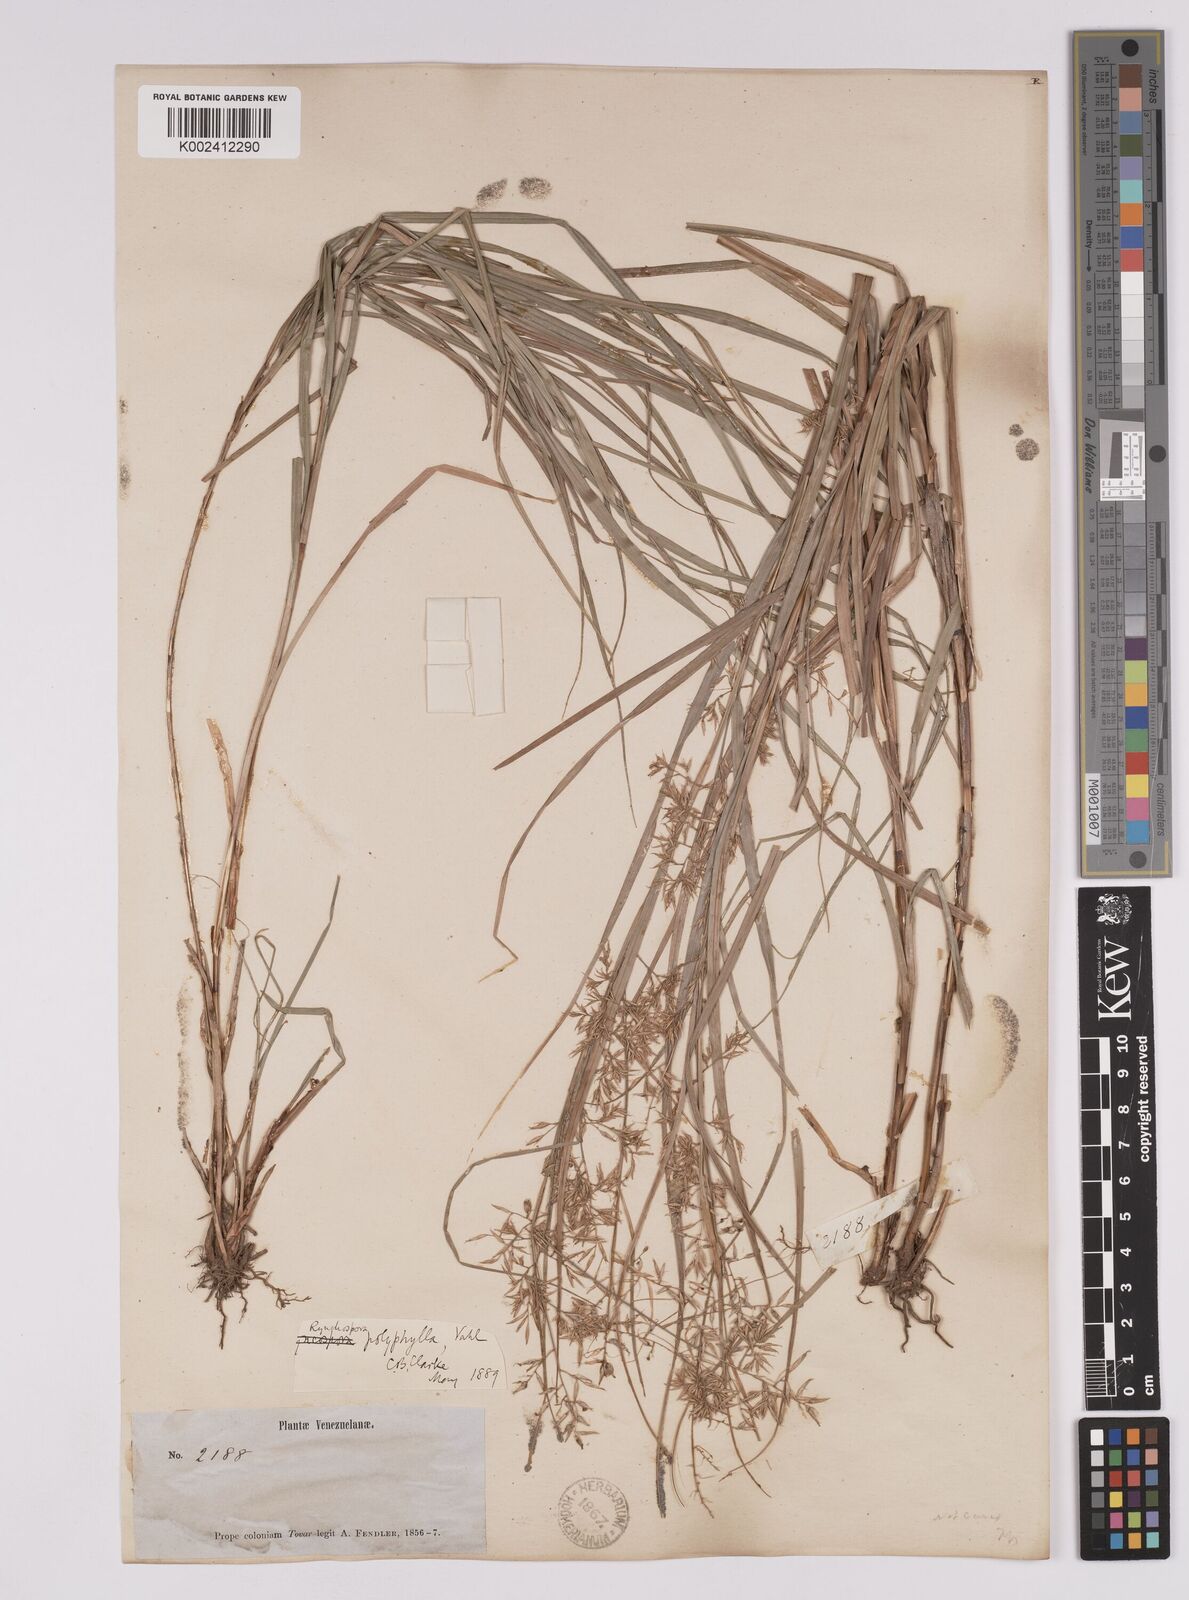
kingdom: Plantae
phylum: Tracheophyta
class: Liliopsida
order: Poales
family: Cyperaceae
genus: Rhynchospora
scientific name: Rhynchospora polyphylla
